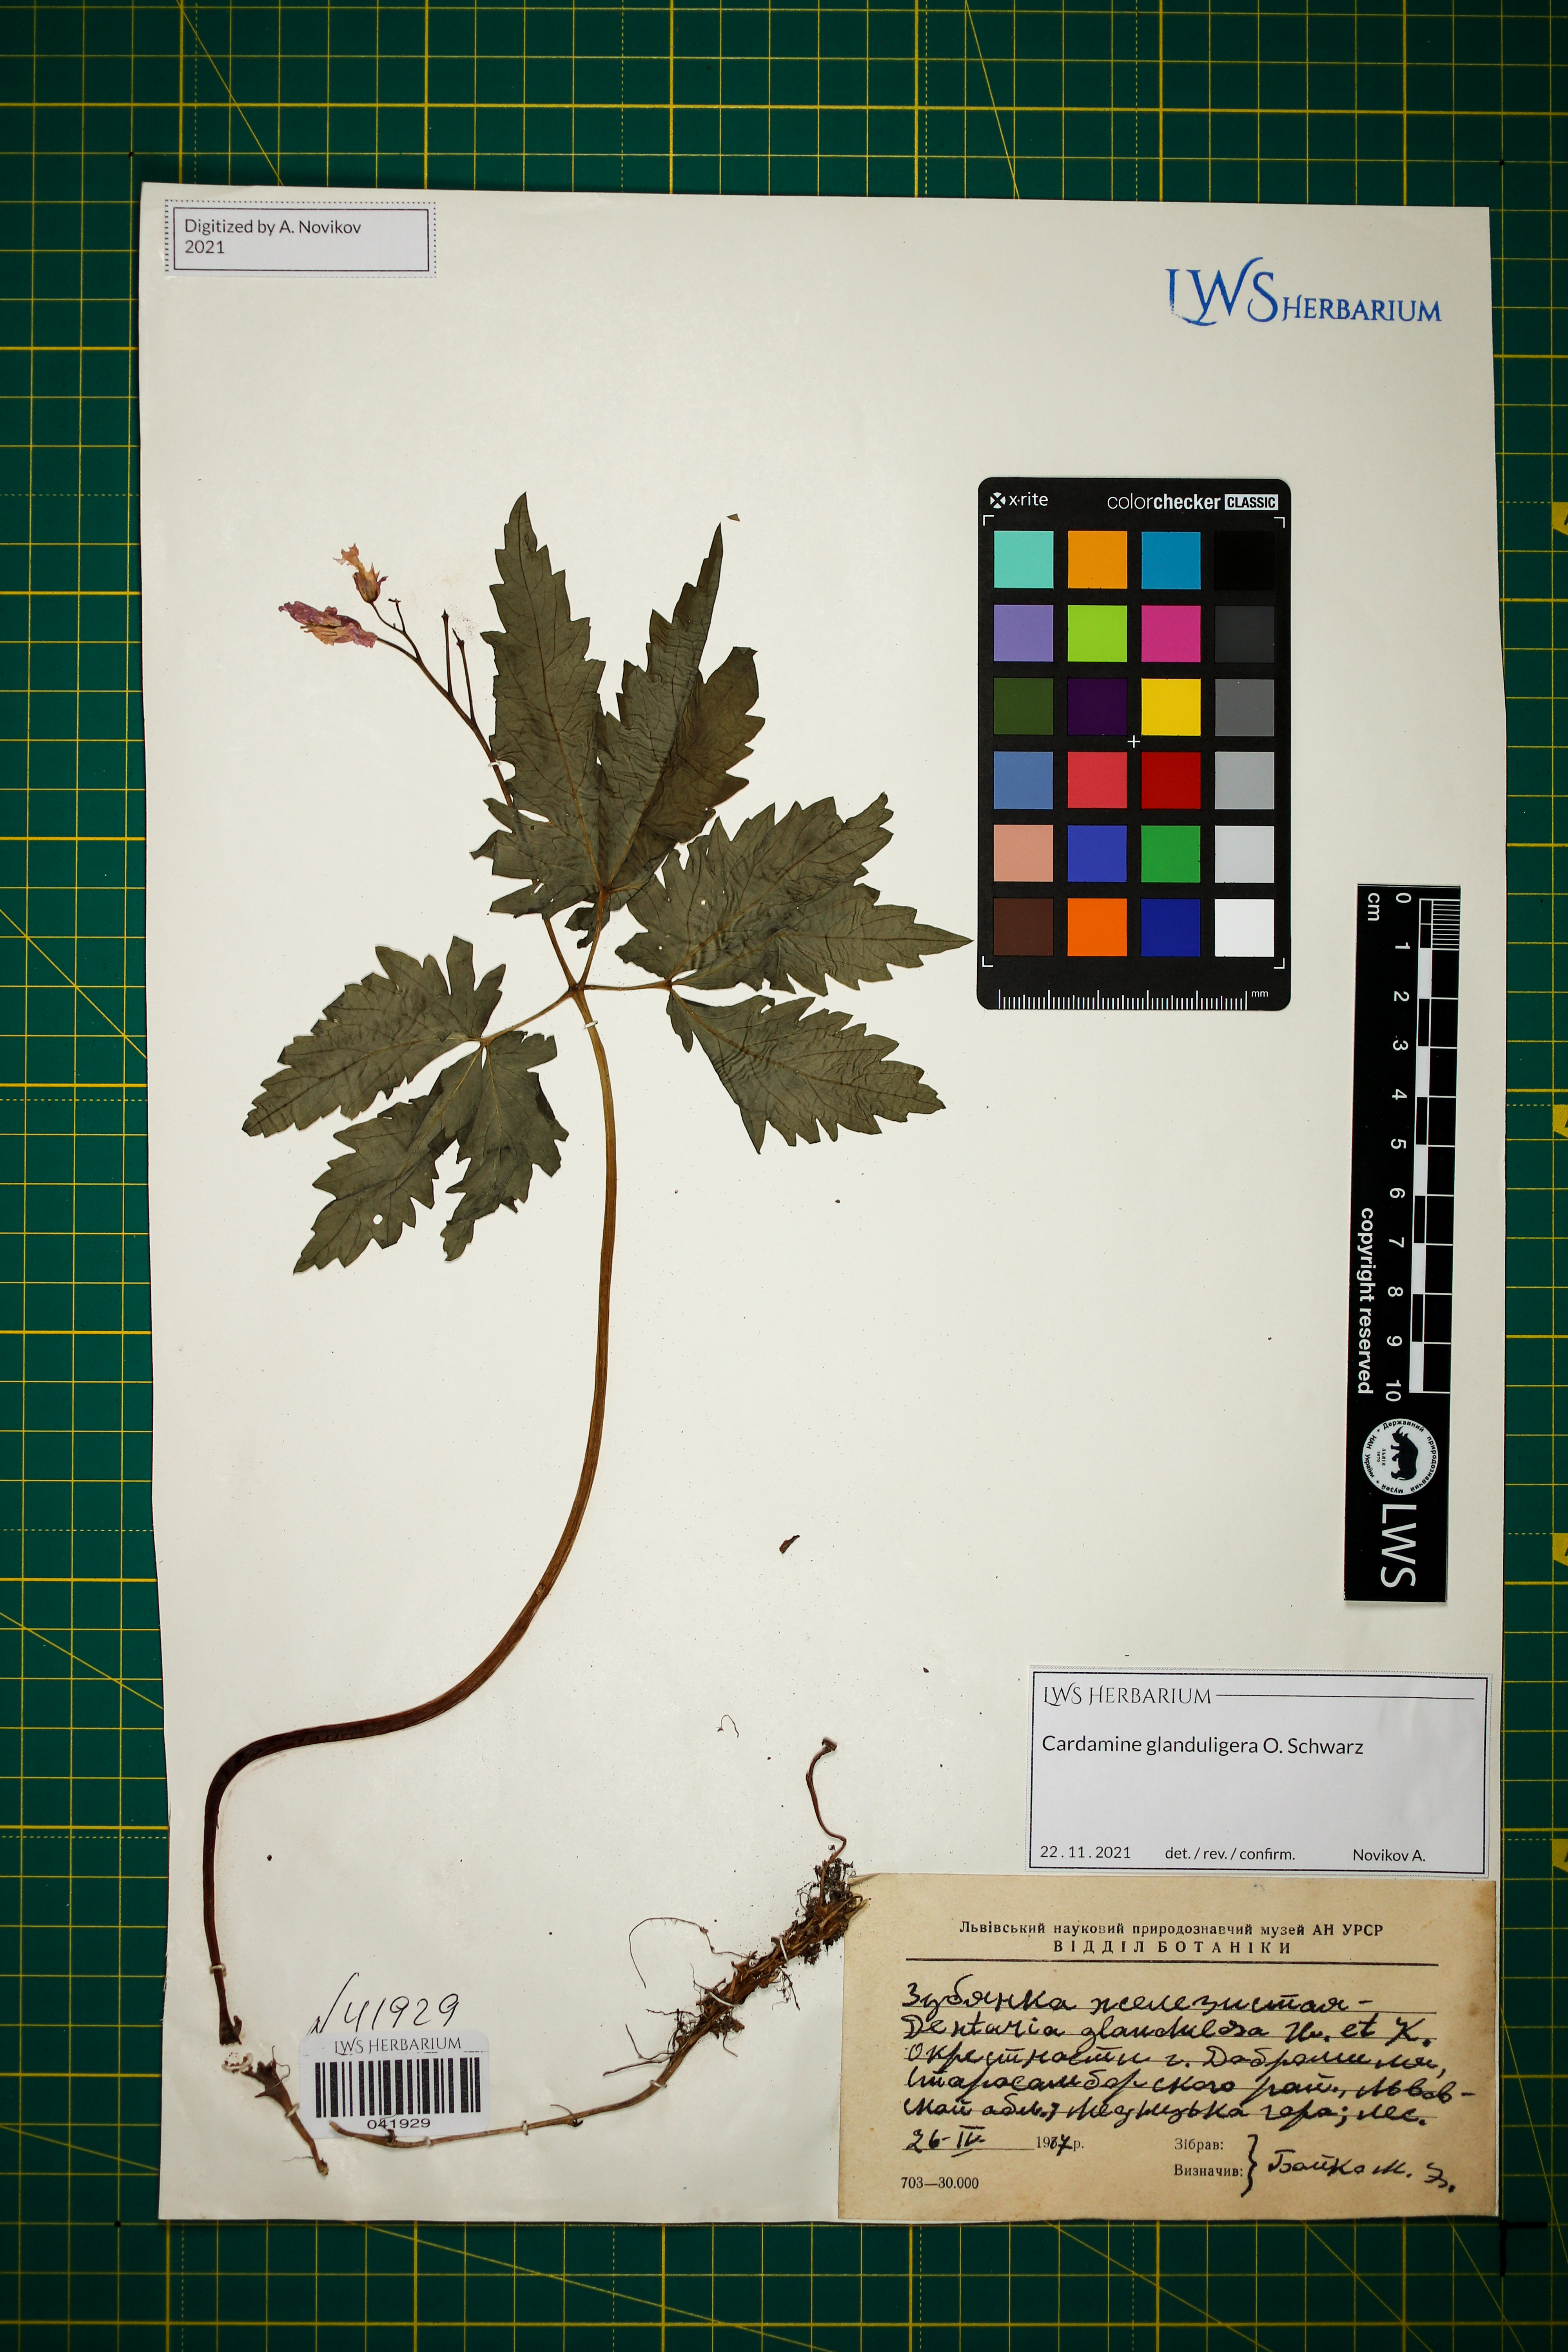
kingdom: Plantae
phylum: Tracheophyta
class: Magnoliopsida
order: Brassicales
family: Brassicaceae
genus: Cardamine
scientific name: Cardamine glanduligera
